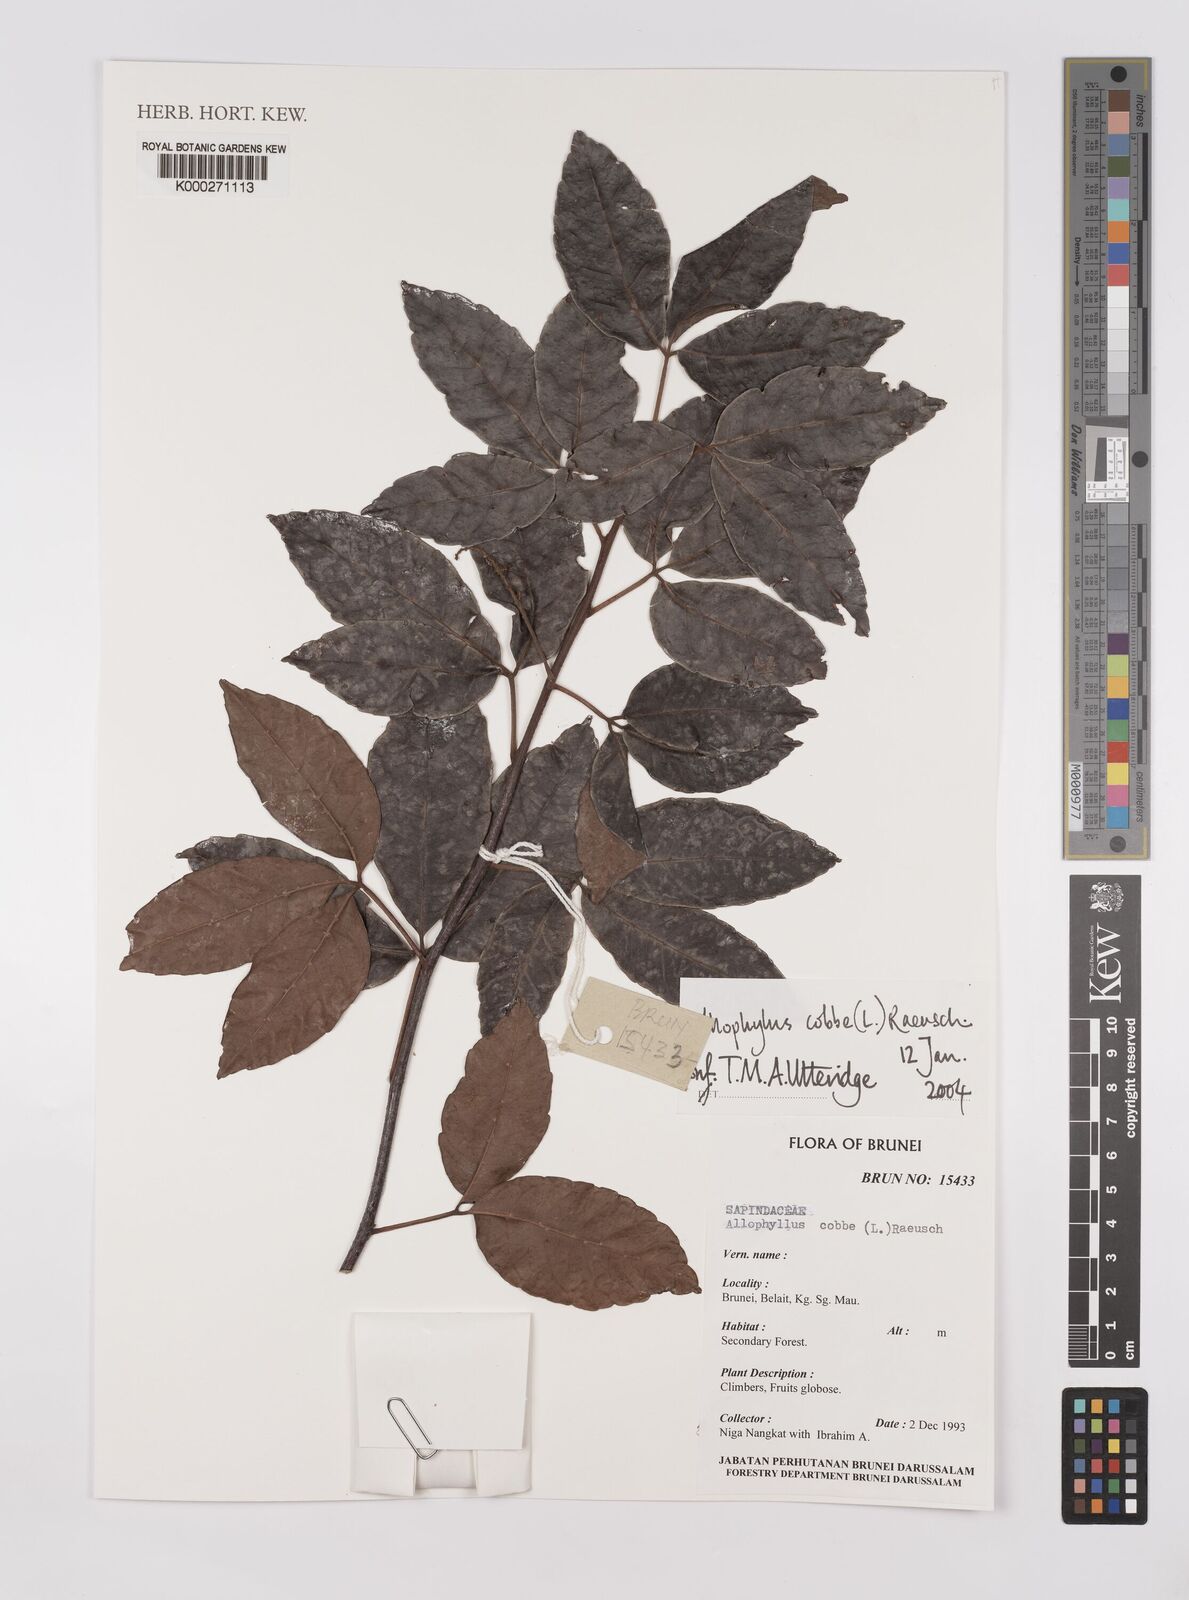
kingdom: Plantae
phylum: Tracheophyta
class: Magnoliopsida
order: Sapindales
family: Sapindaceae
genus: Allophylus
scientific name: Allophylus
